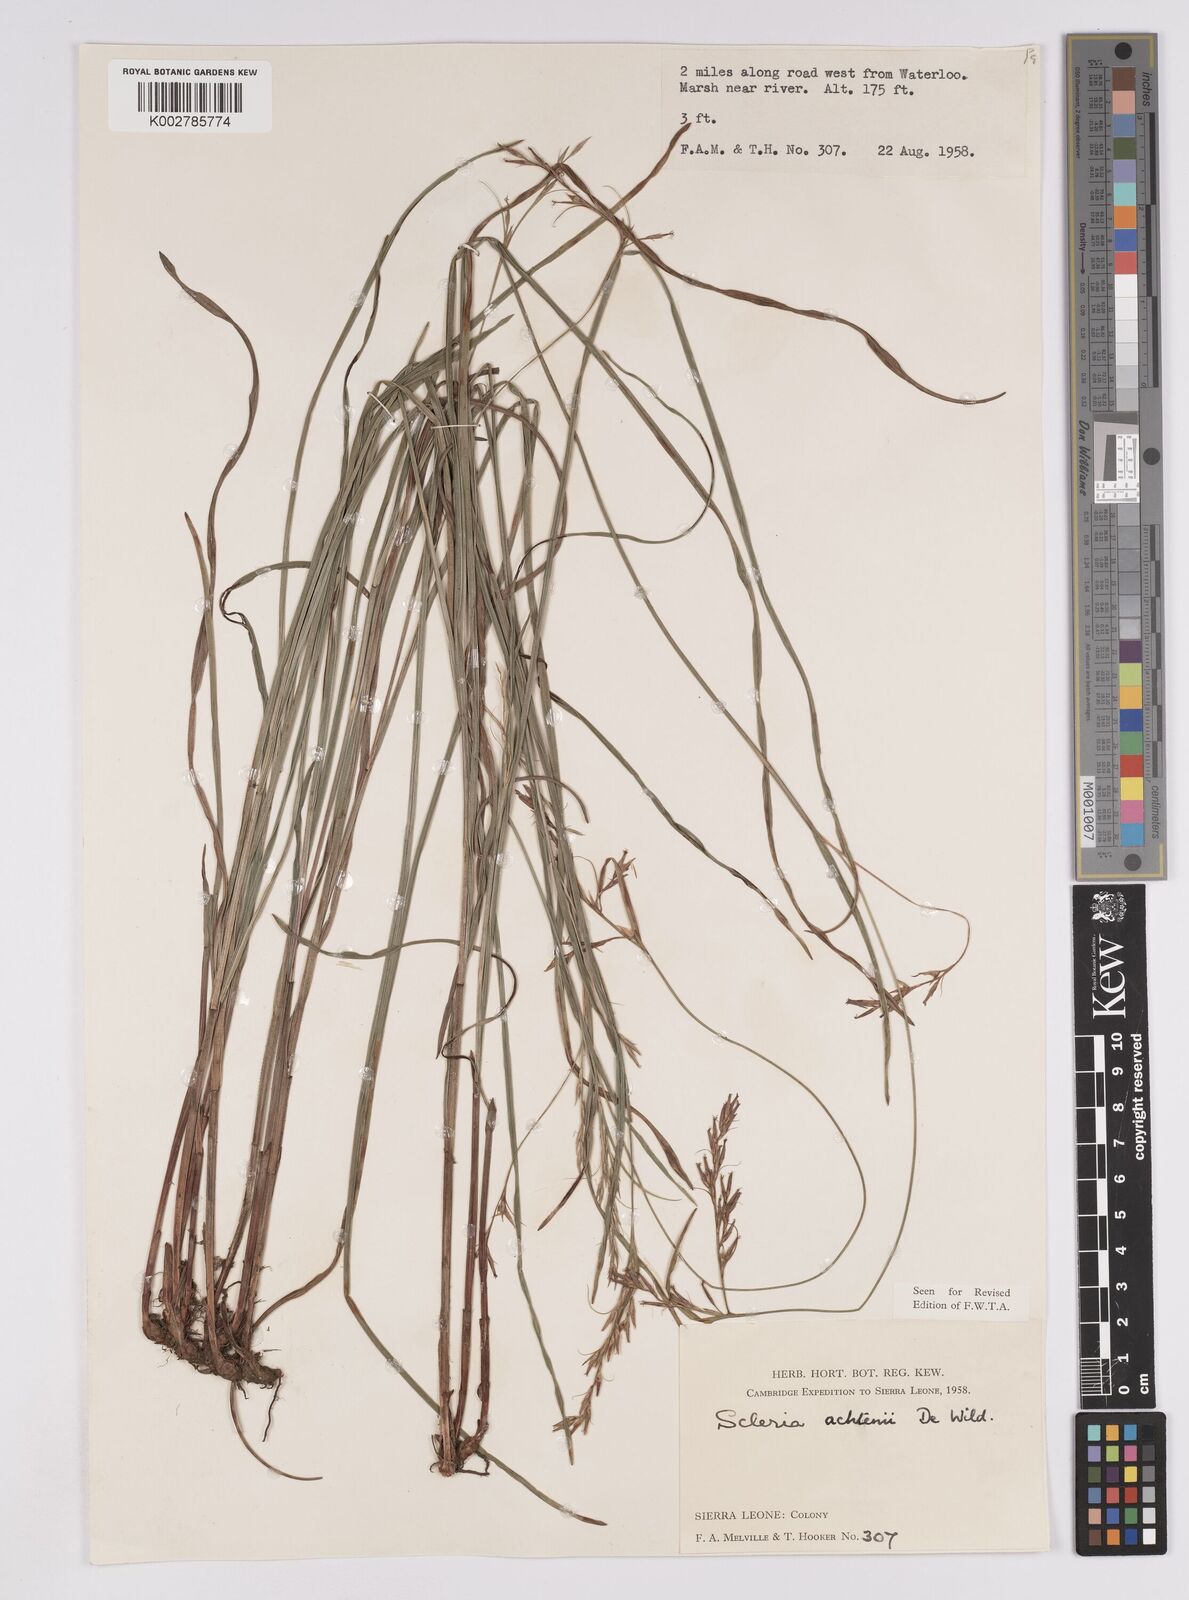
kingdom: Plantae
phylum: Tracheophyta
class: Liliopsida
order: Poales
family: Cyperaceae
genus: Scleria
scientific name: Scleria achtenii
